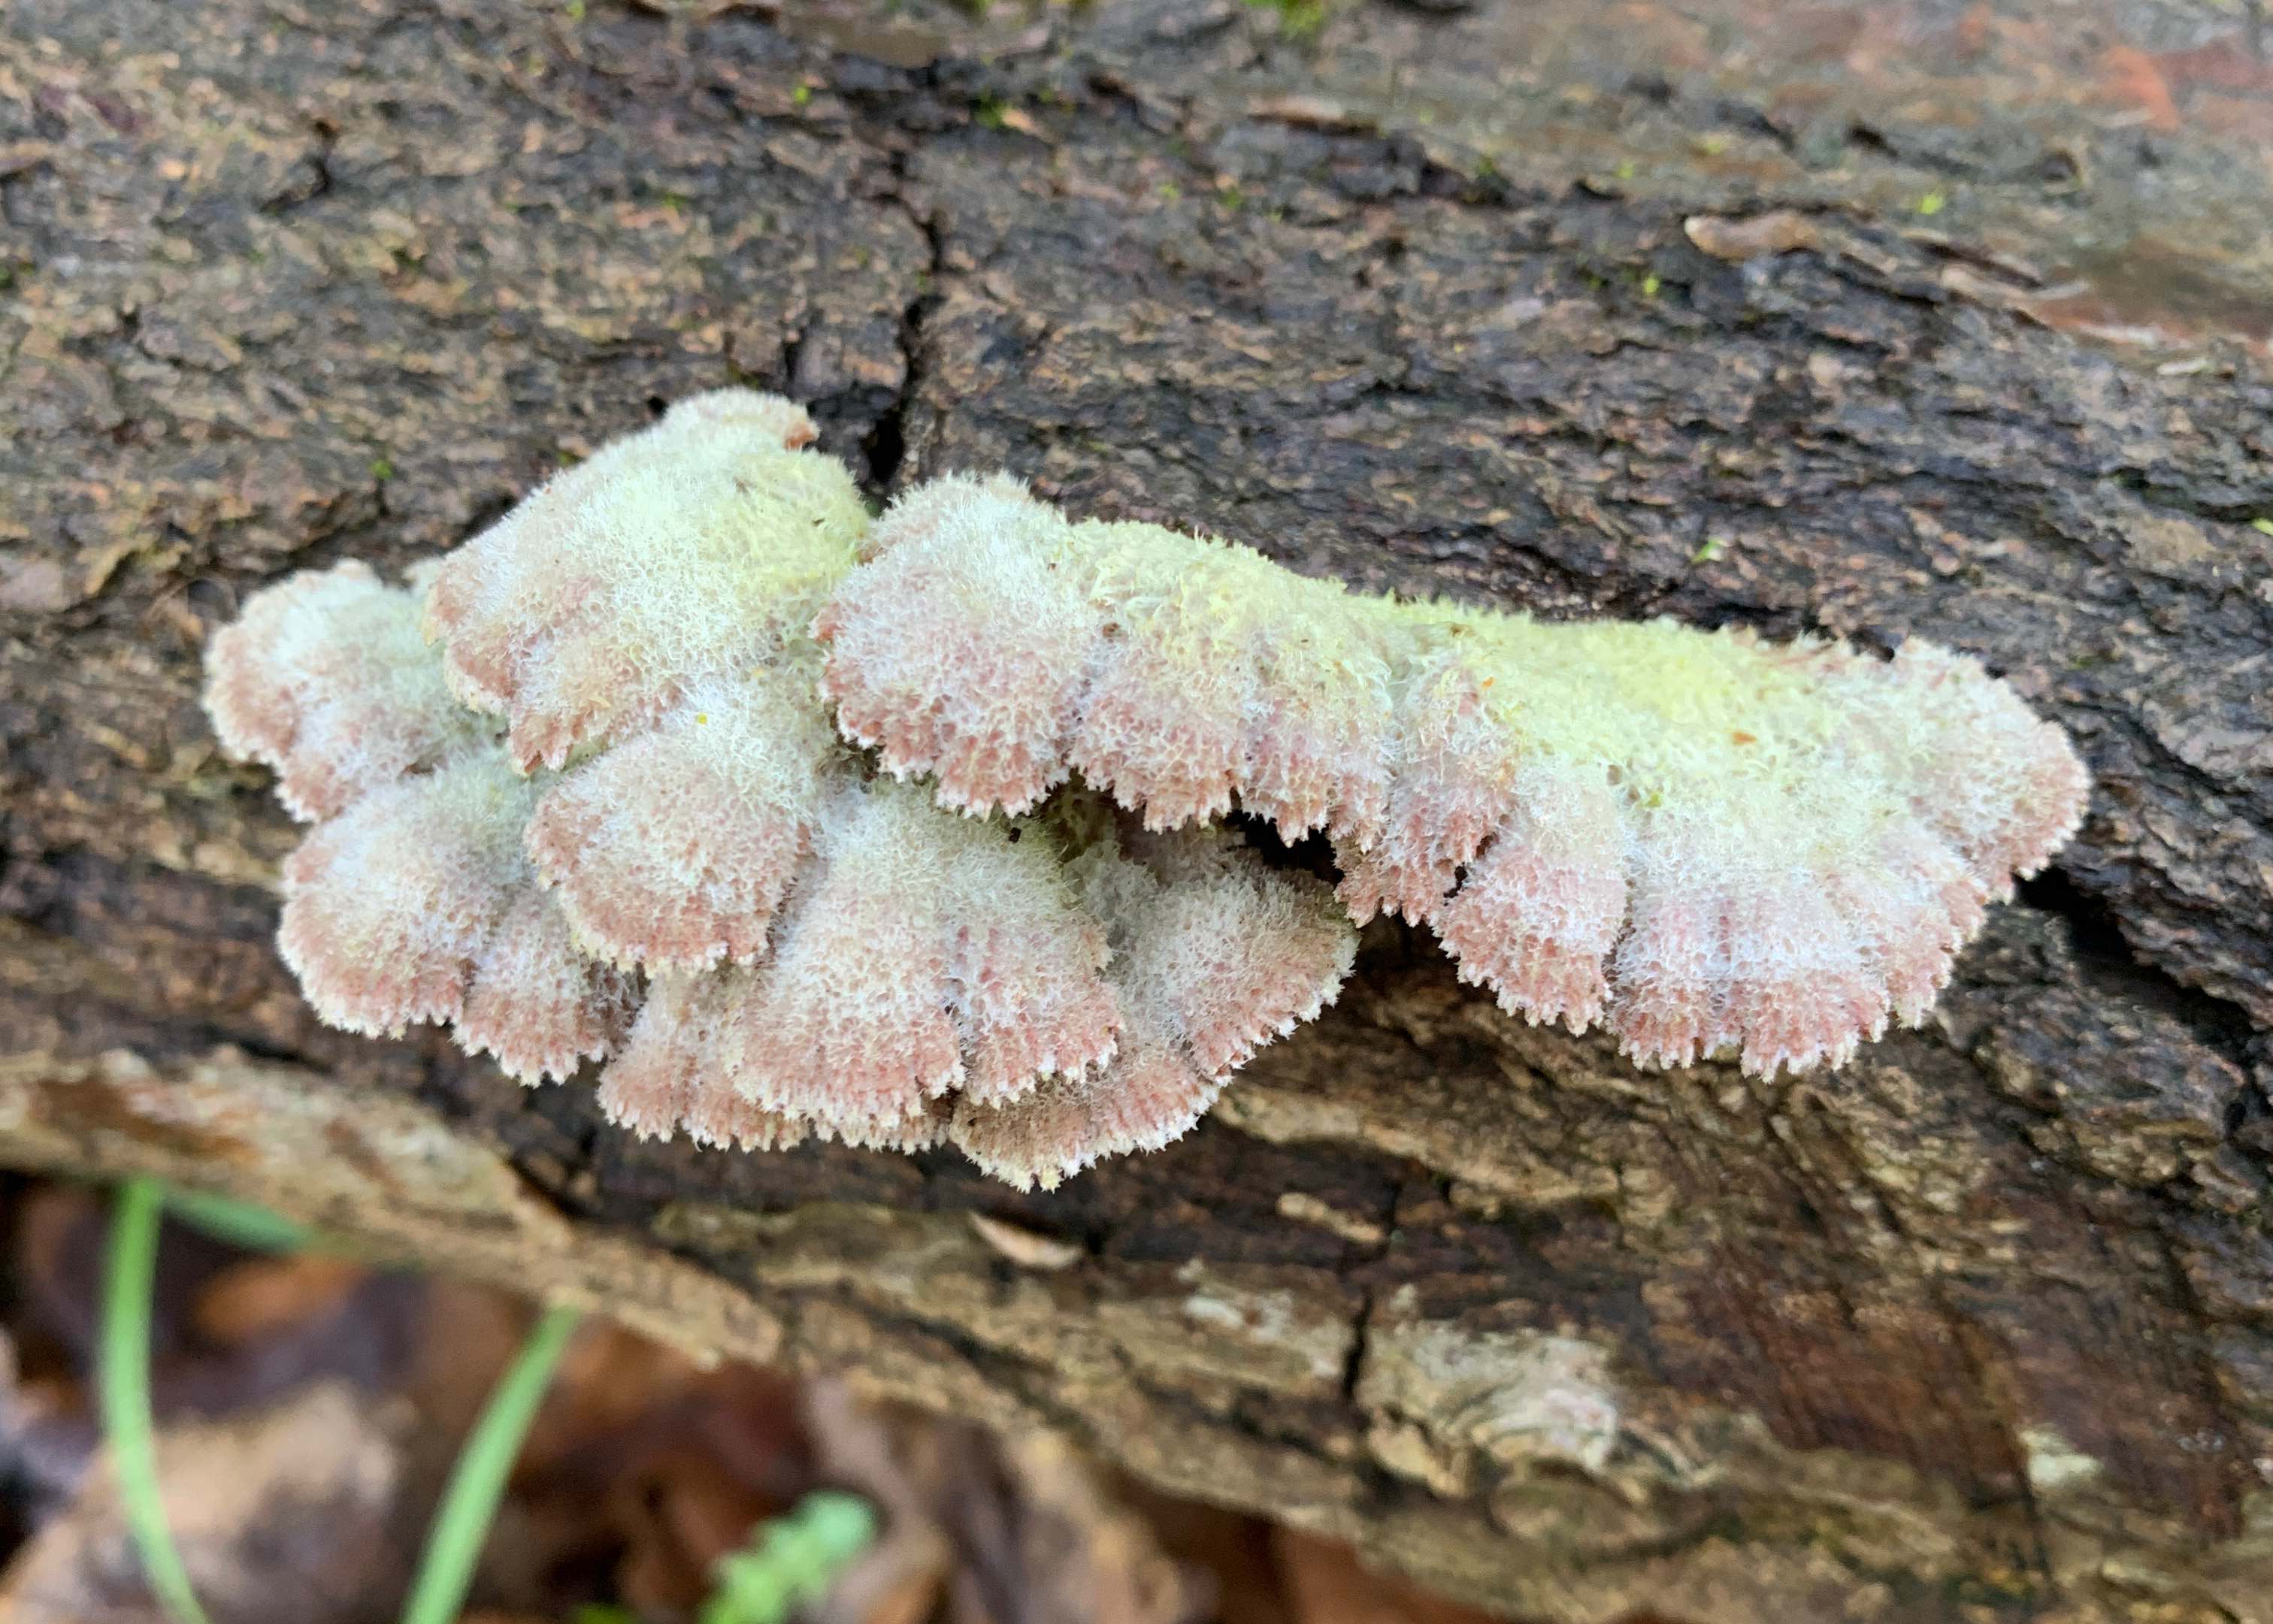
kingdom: Fungi
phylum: Basidiomycota
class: Agaricomycetes
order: Agaricales
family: Schizophyllaceae
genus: Schizophyllum
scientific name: Schizophyllum commune
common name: kløvblad
